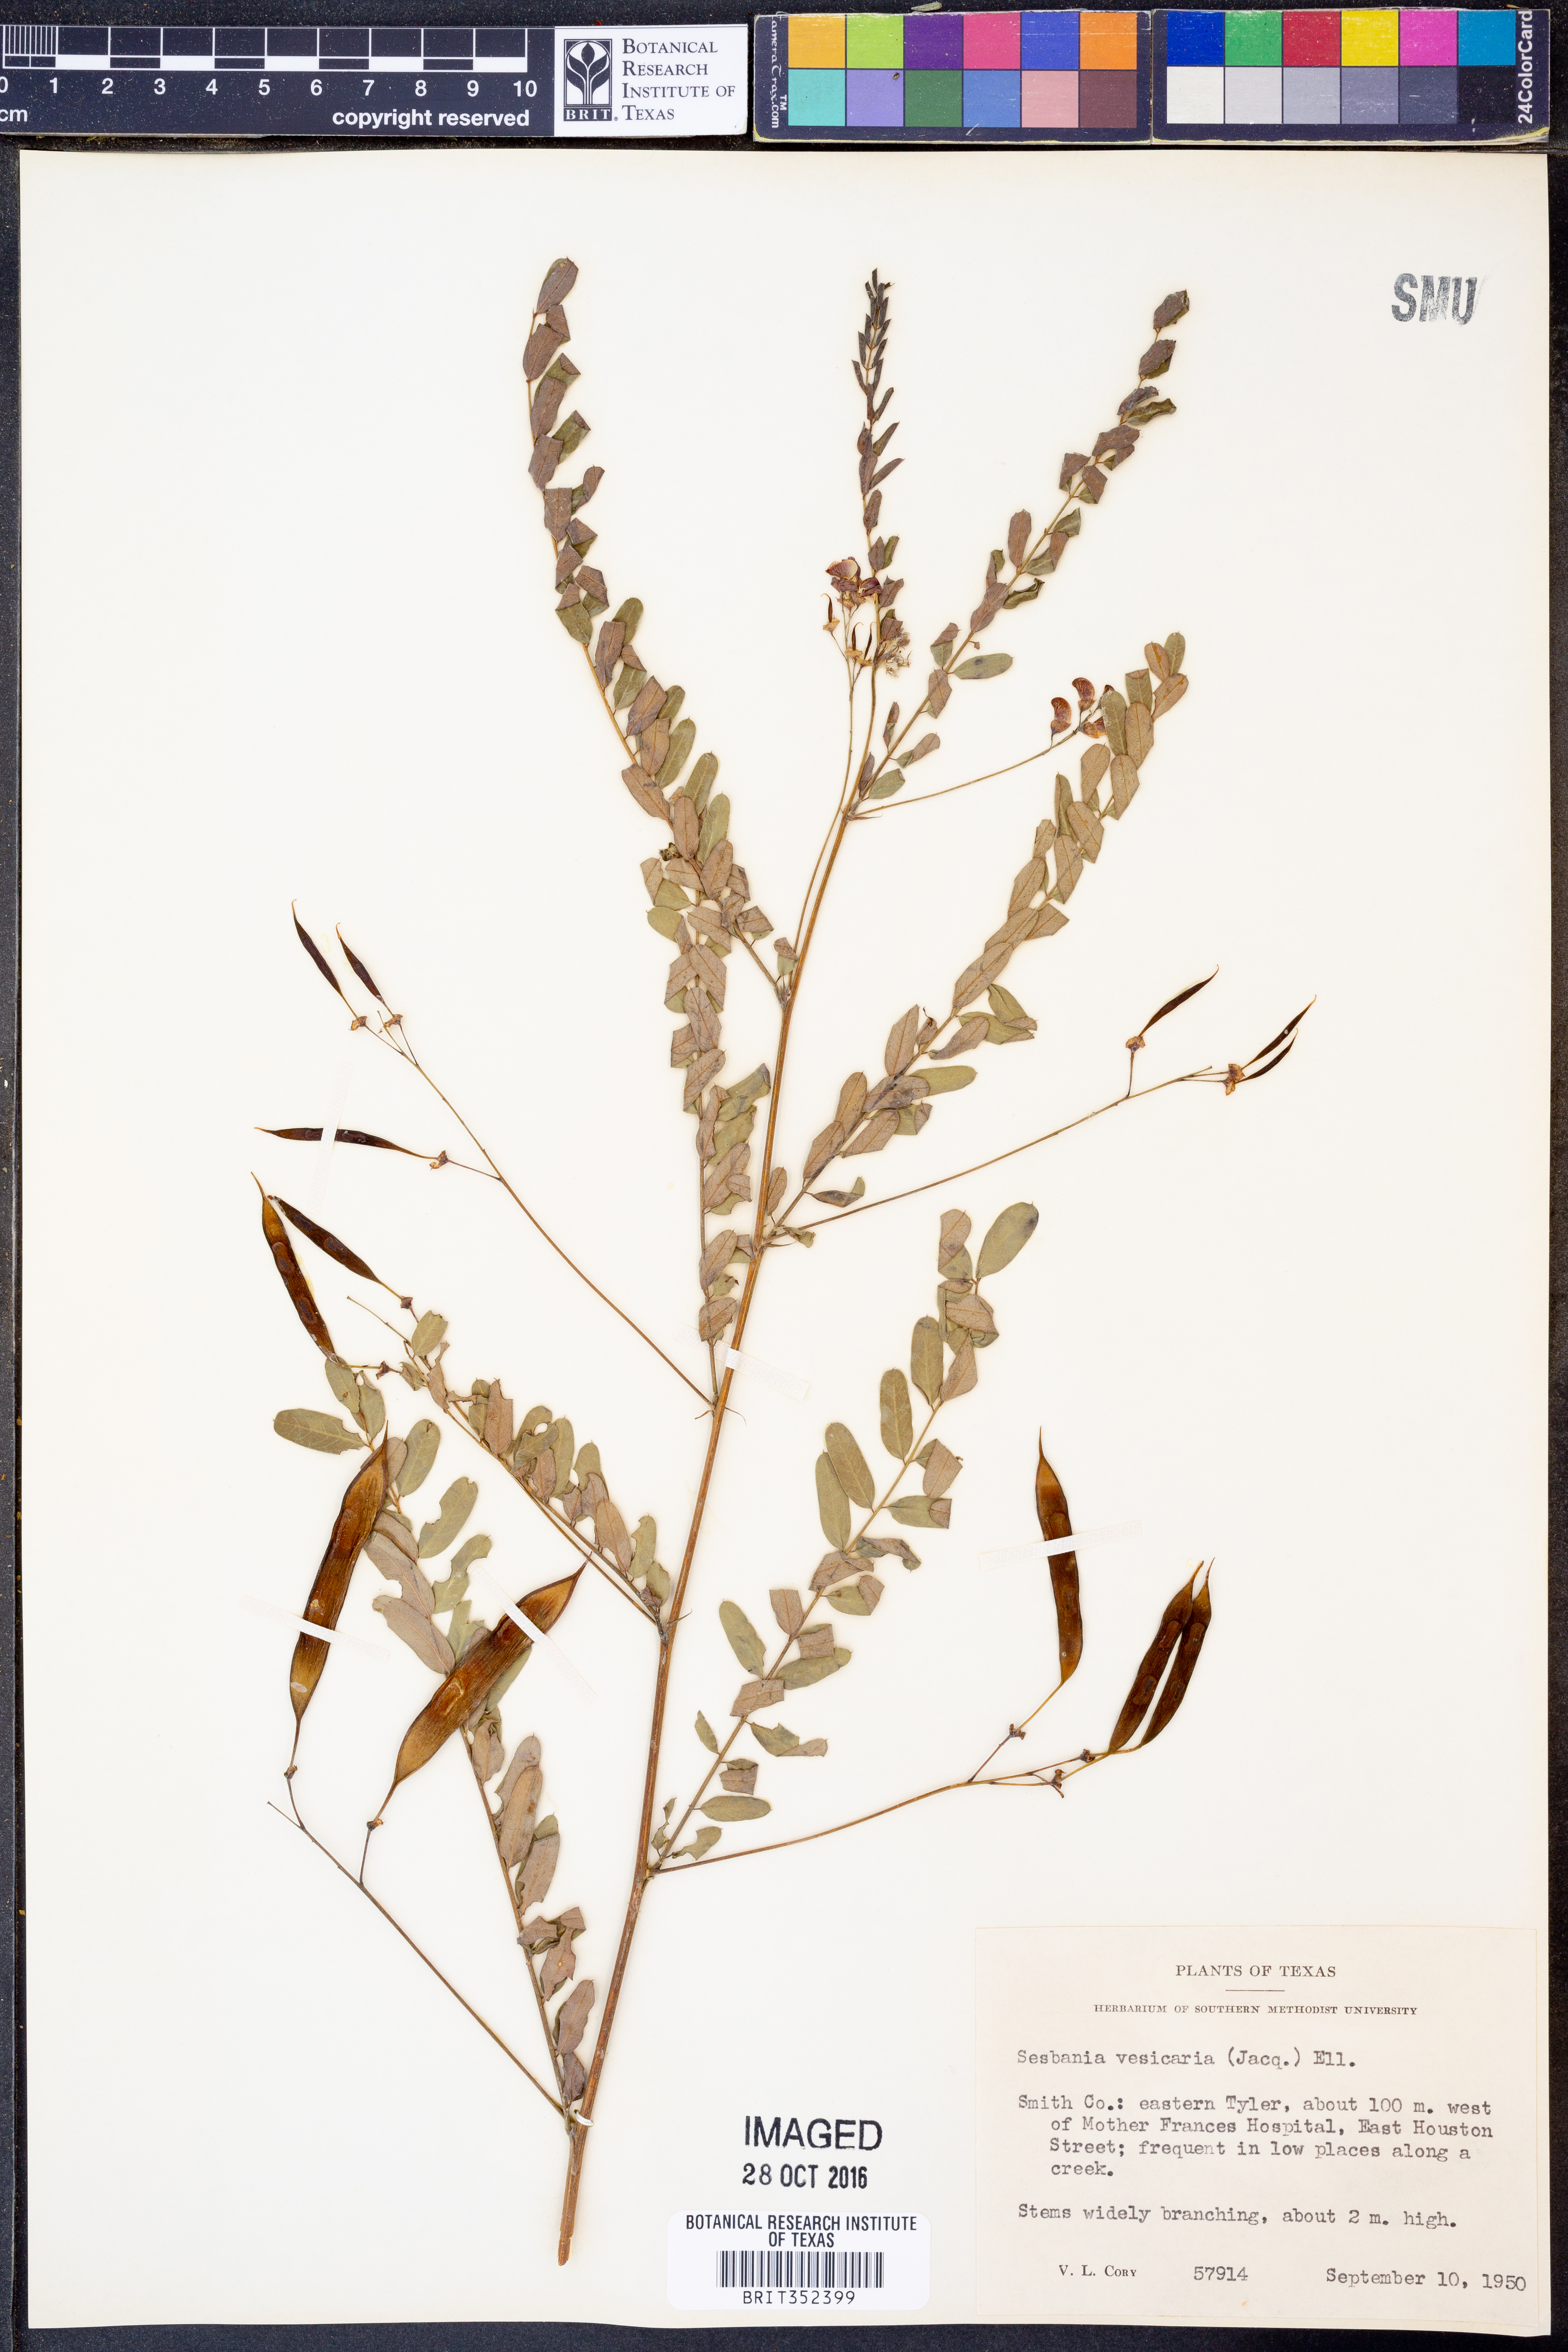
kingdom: Plantae
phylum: Tracheophyta
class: Magnoliopsida
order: Fabales
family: Fabaceae
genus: Sesbania
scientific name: Sesbania vesicaria
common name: Bagpod
